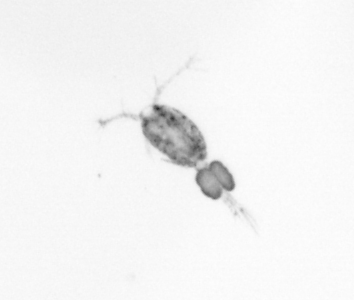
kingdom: Animalia
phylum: Arthropoda
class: Copepoda
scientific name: Copepoda
